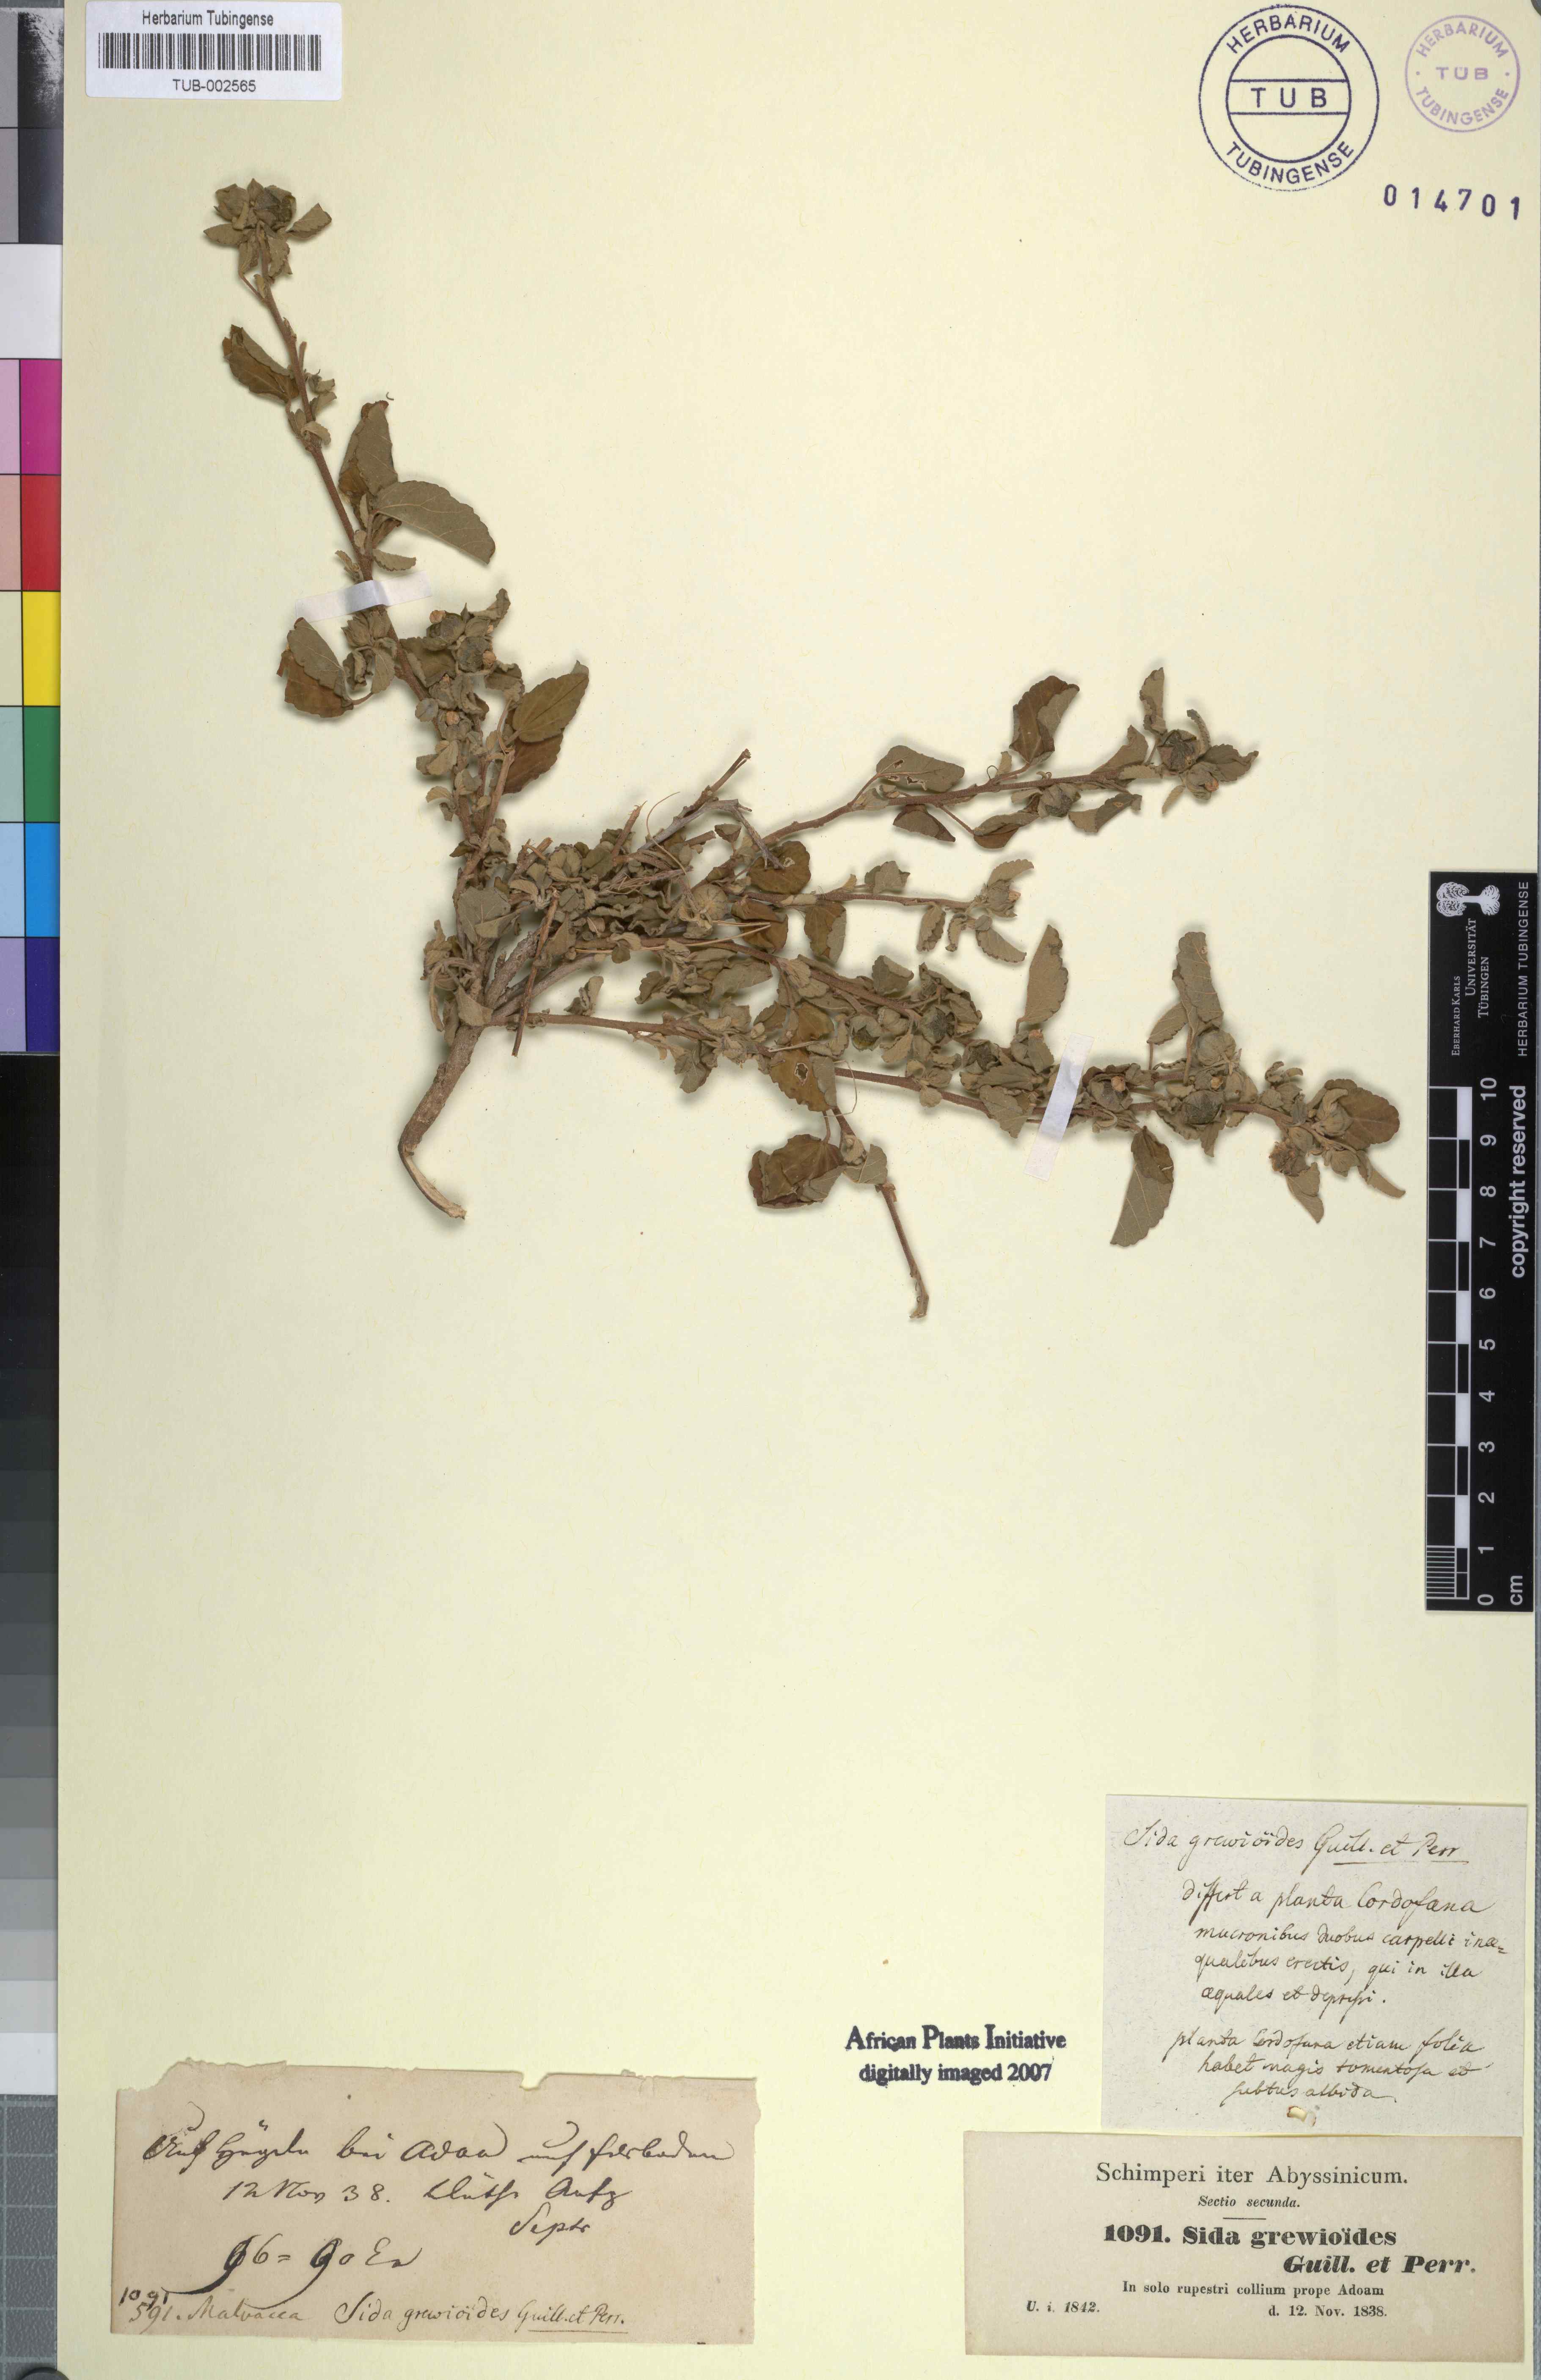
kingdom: Plantae
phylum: Tracheophyta
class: Magnoliopsida
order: Malvales
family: Malvaceae
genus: Sida
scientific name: Sida ovata
